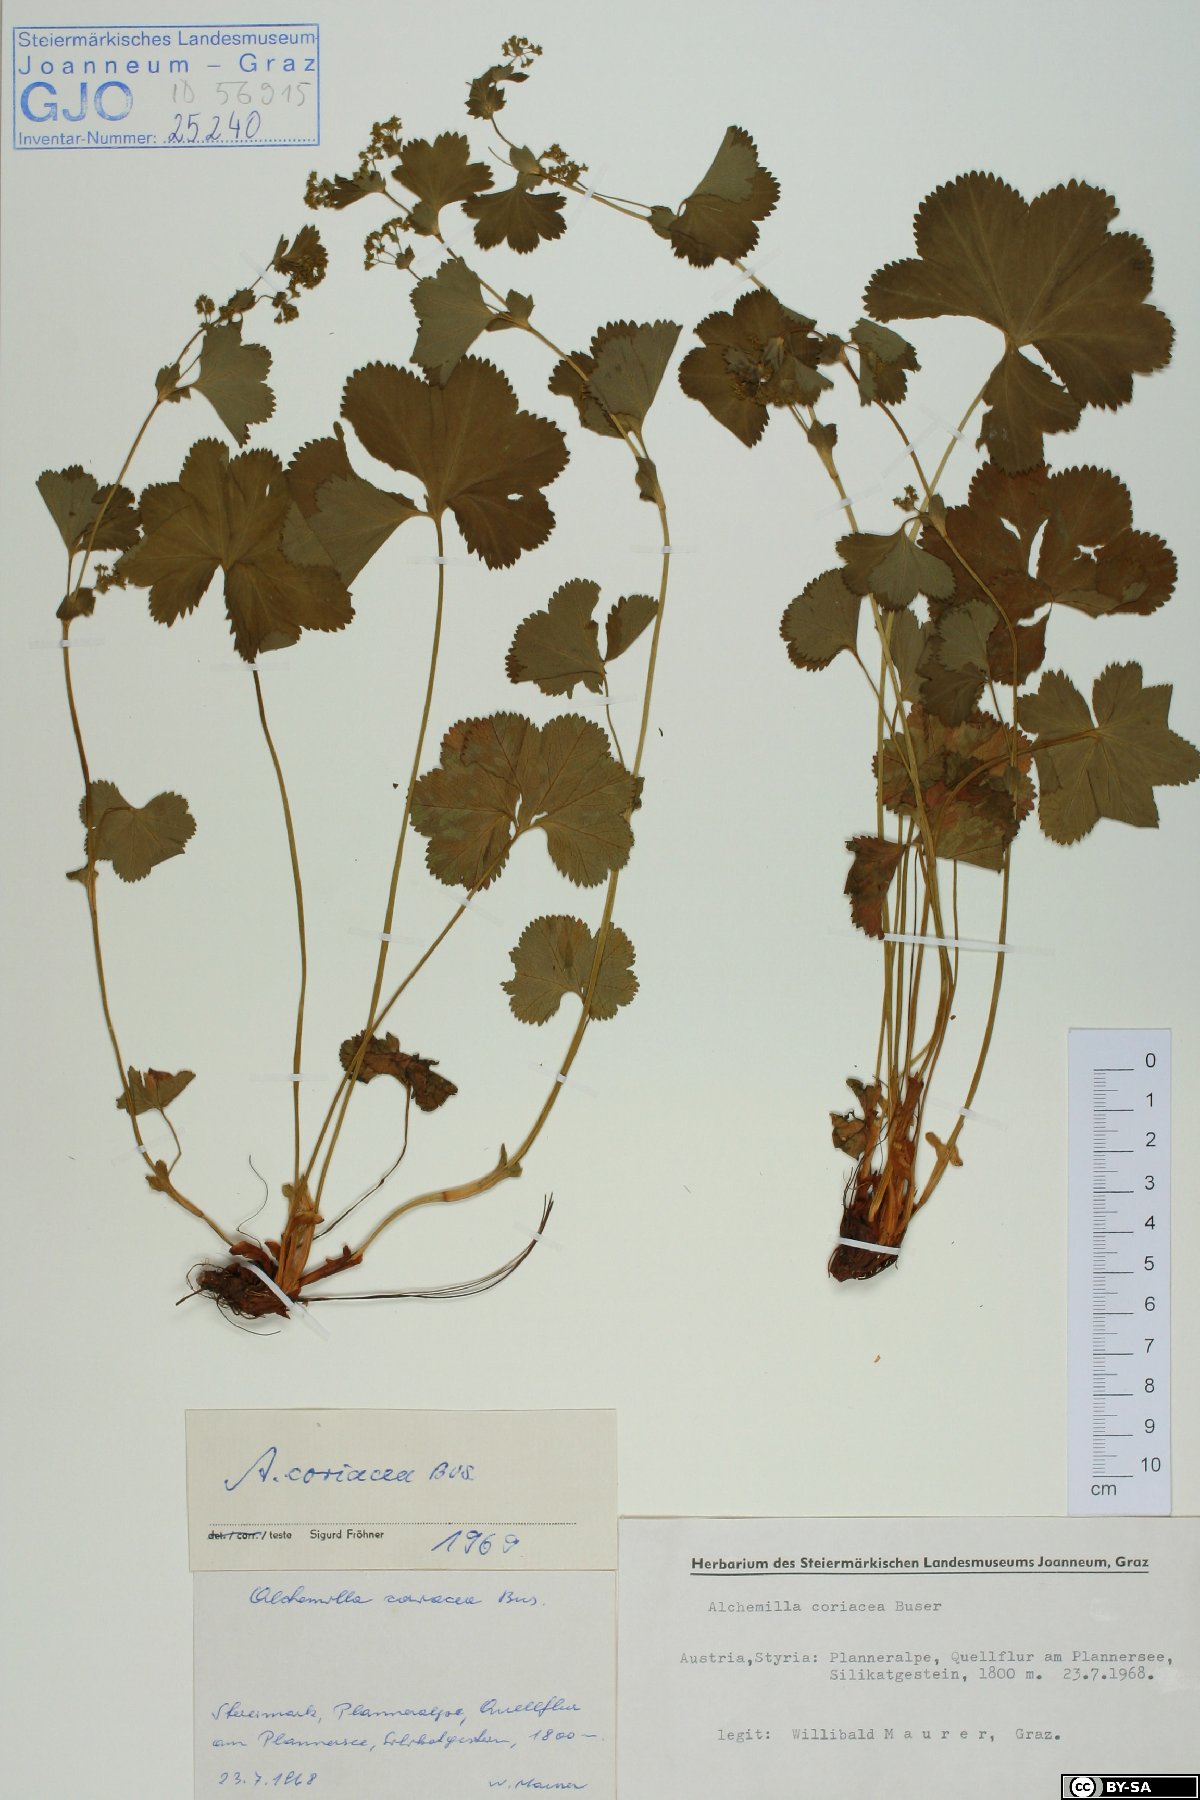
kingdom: Plantae
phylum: Tracheophyta
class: Magnoliopsida
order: Rosales
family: Rosaceae
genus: Alchemilla
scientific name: Alchemilla coriacea
